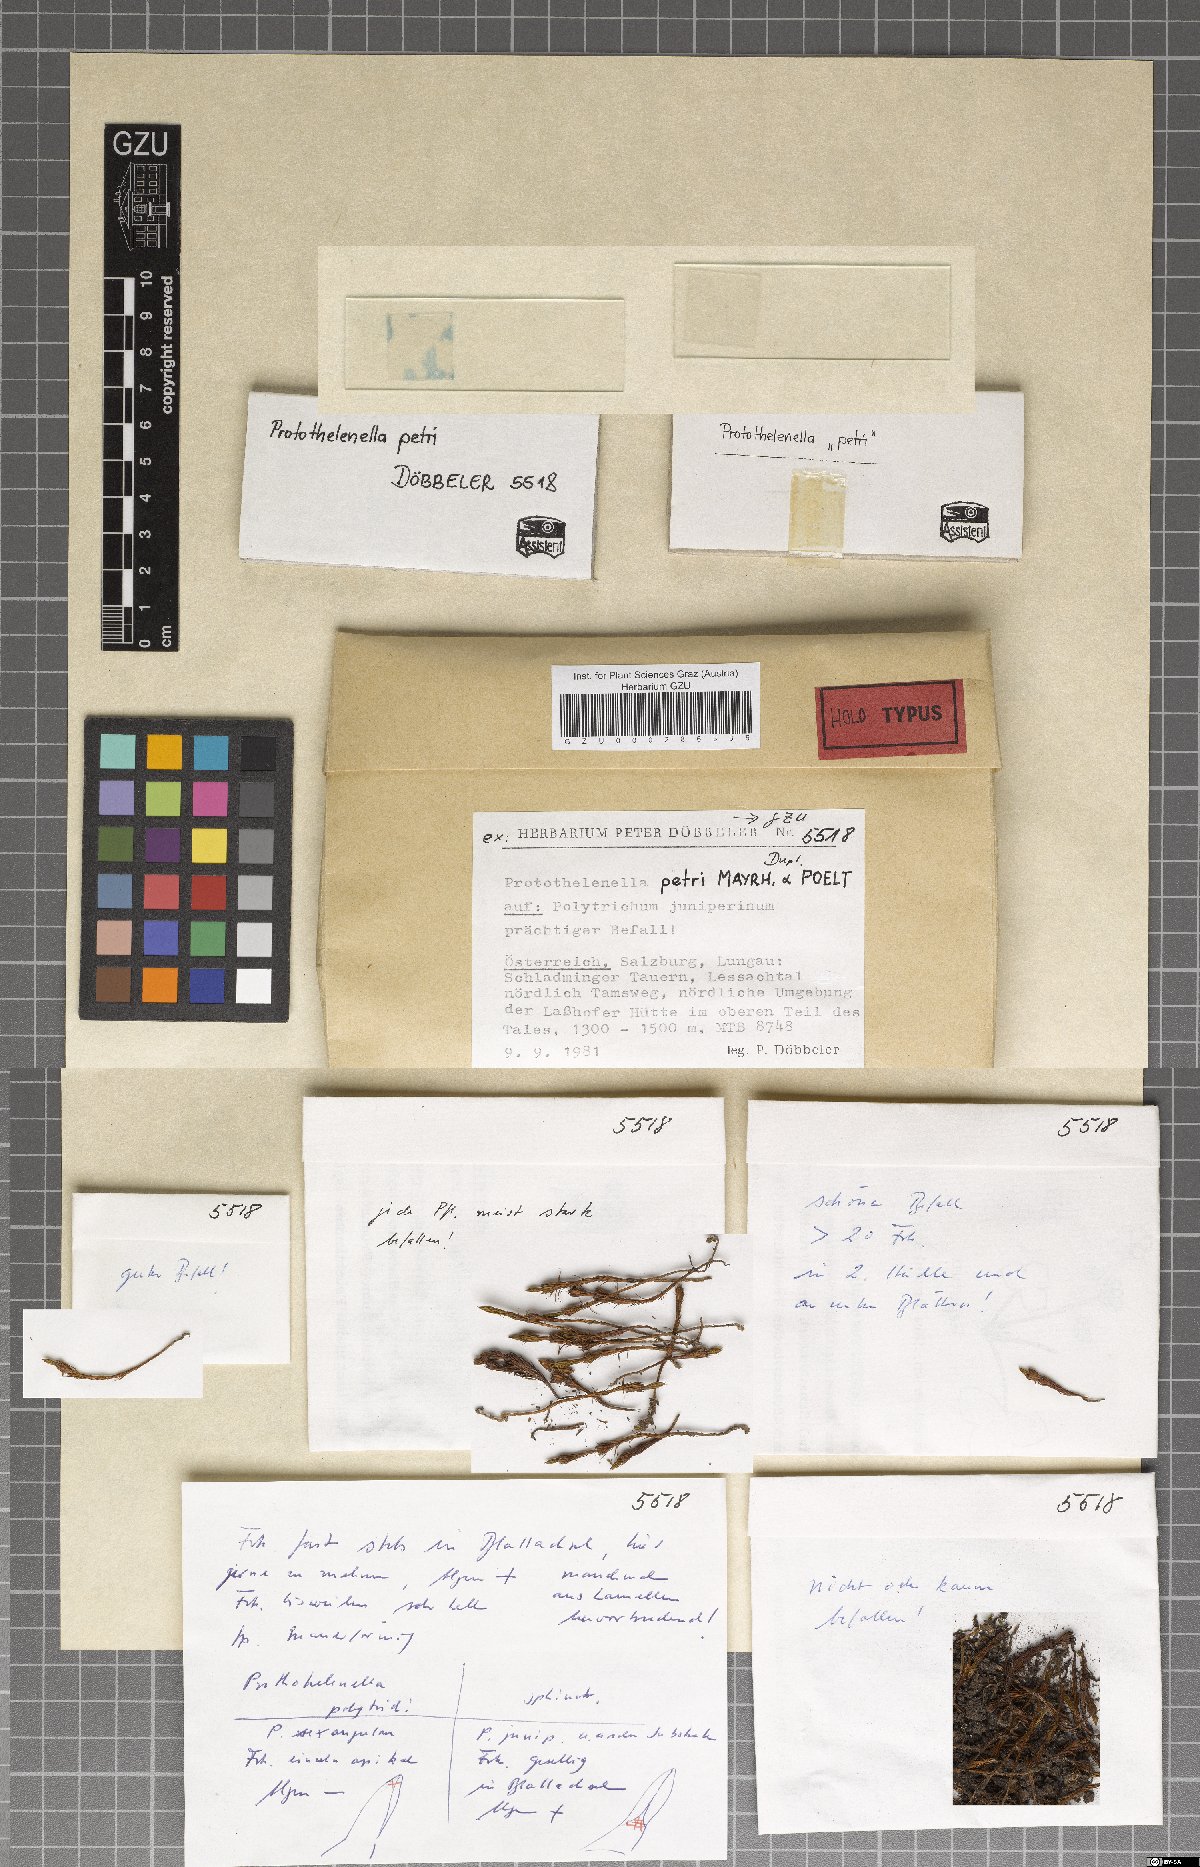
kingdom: Fungi
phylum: Ascomycota
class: Lecanoromycetes
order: Ostropales
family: Protothelenellaceae
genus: Protothelenella
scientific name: Protothelenella petri
